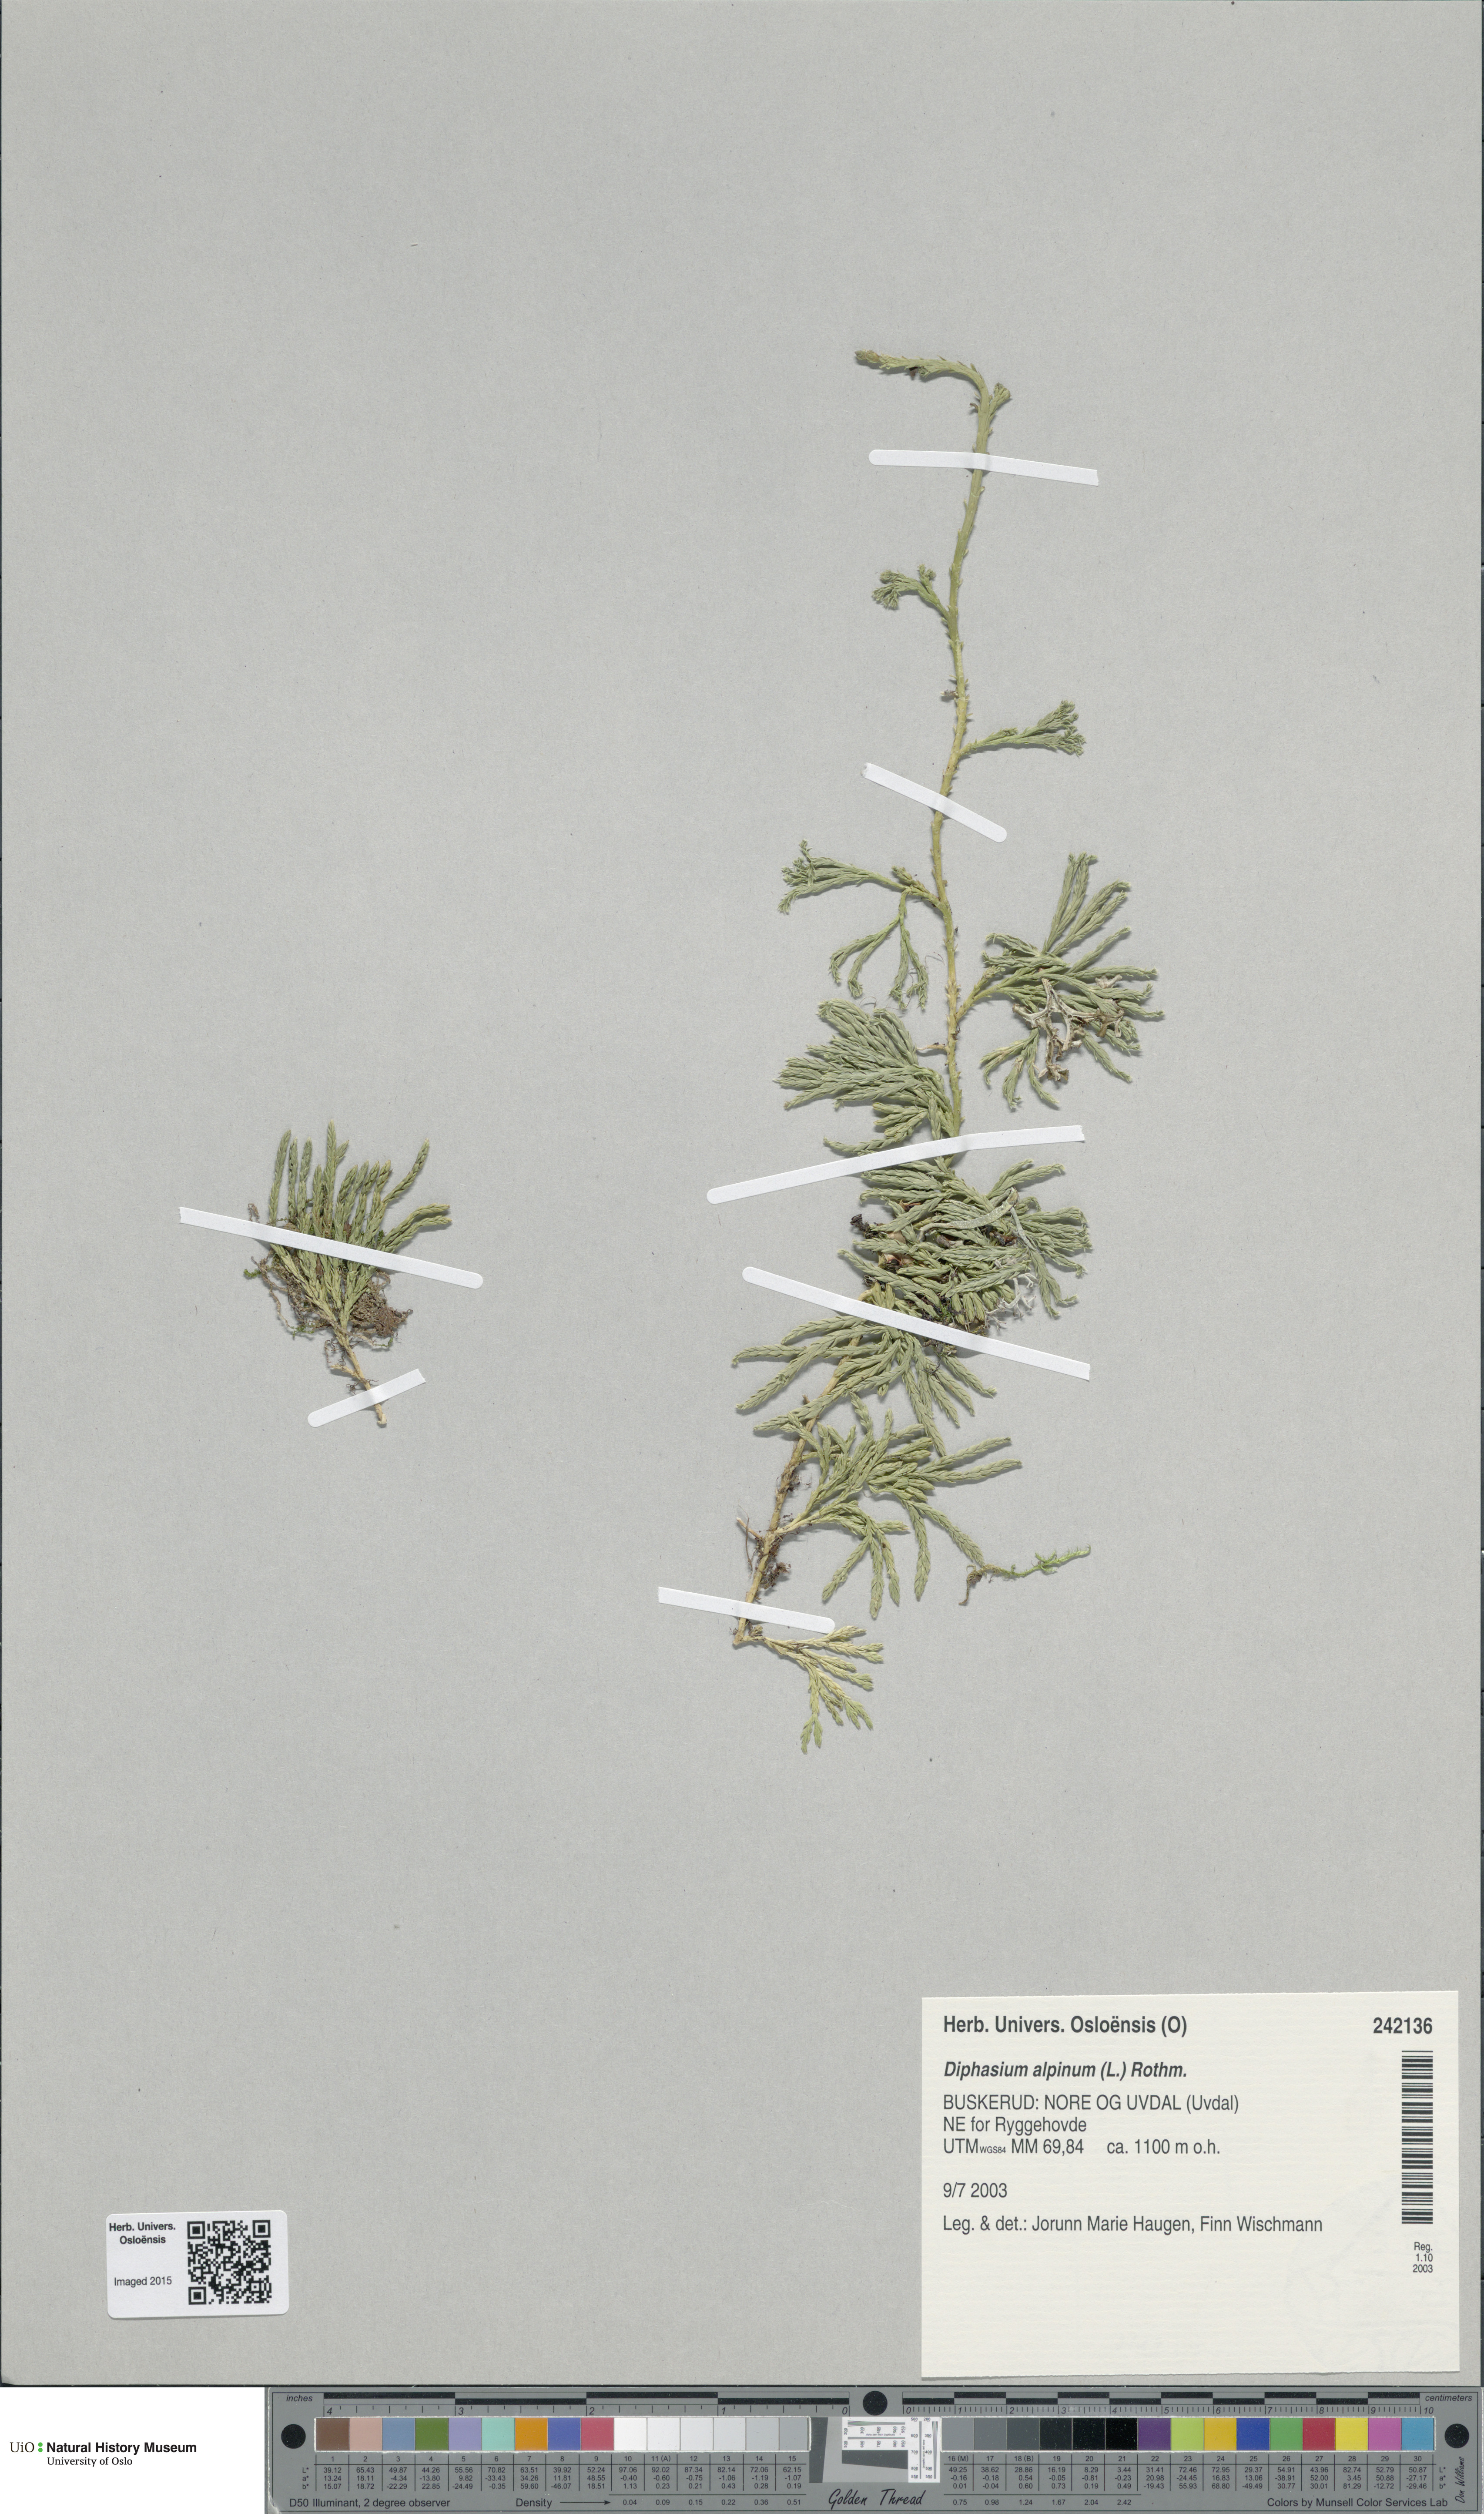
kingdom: Plantae
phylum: Tracheophyta
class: Lycopodiopsida
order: Lycopodiales
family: Lycopodiaceae
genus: Diphasiastrum
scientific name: Diphasiastrum alpinum
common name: Alpine clubmoss
